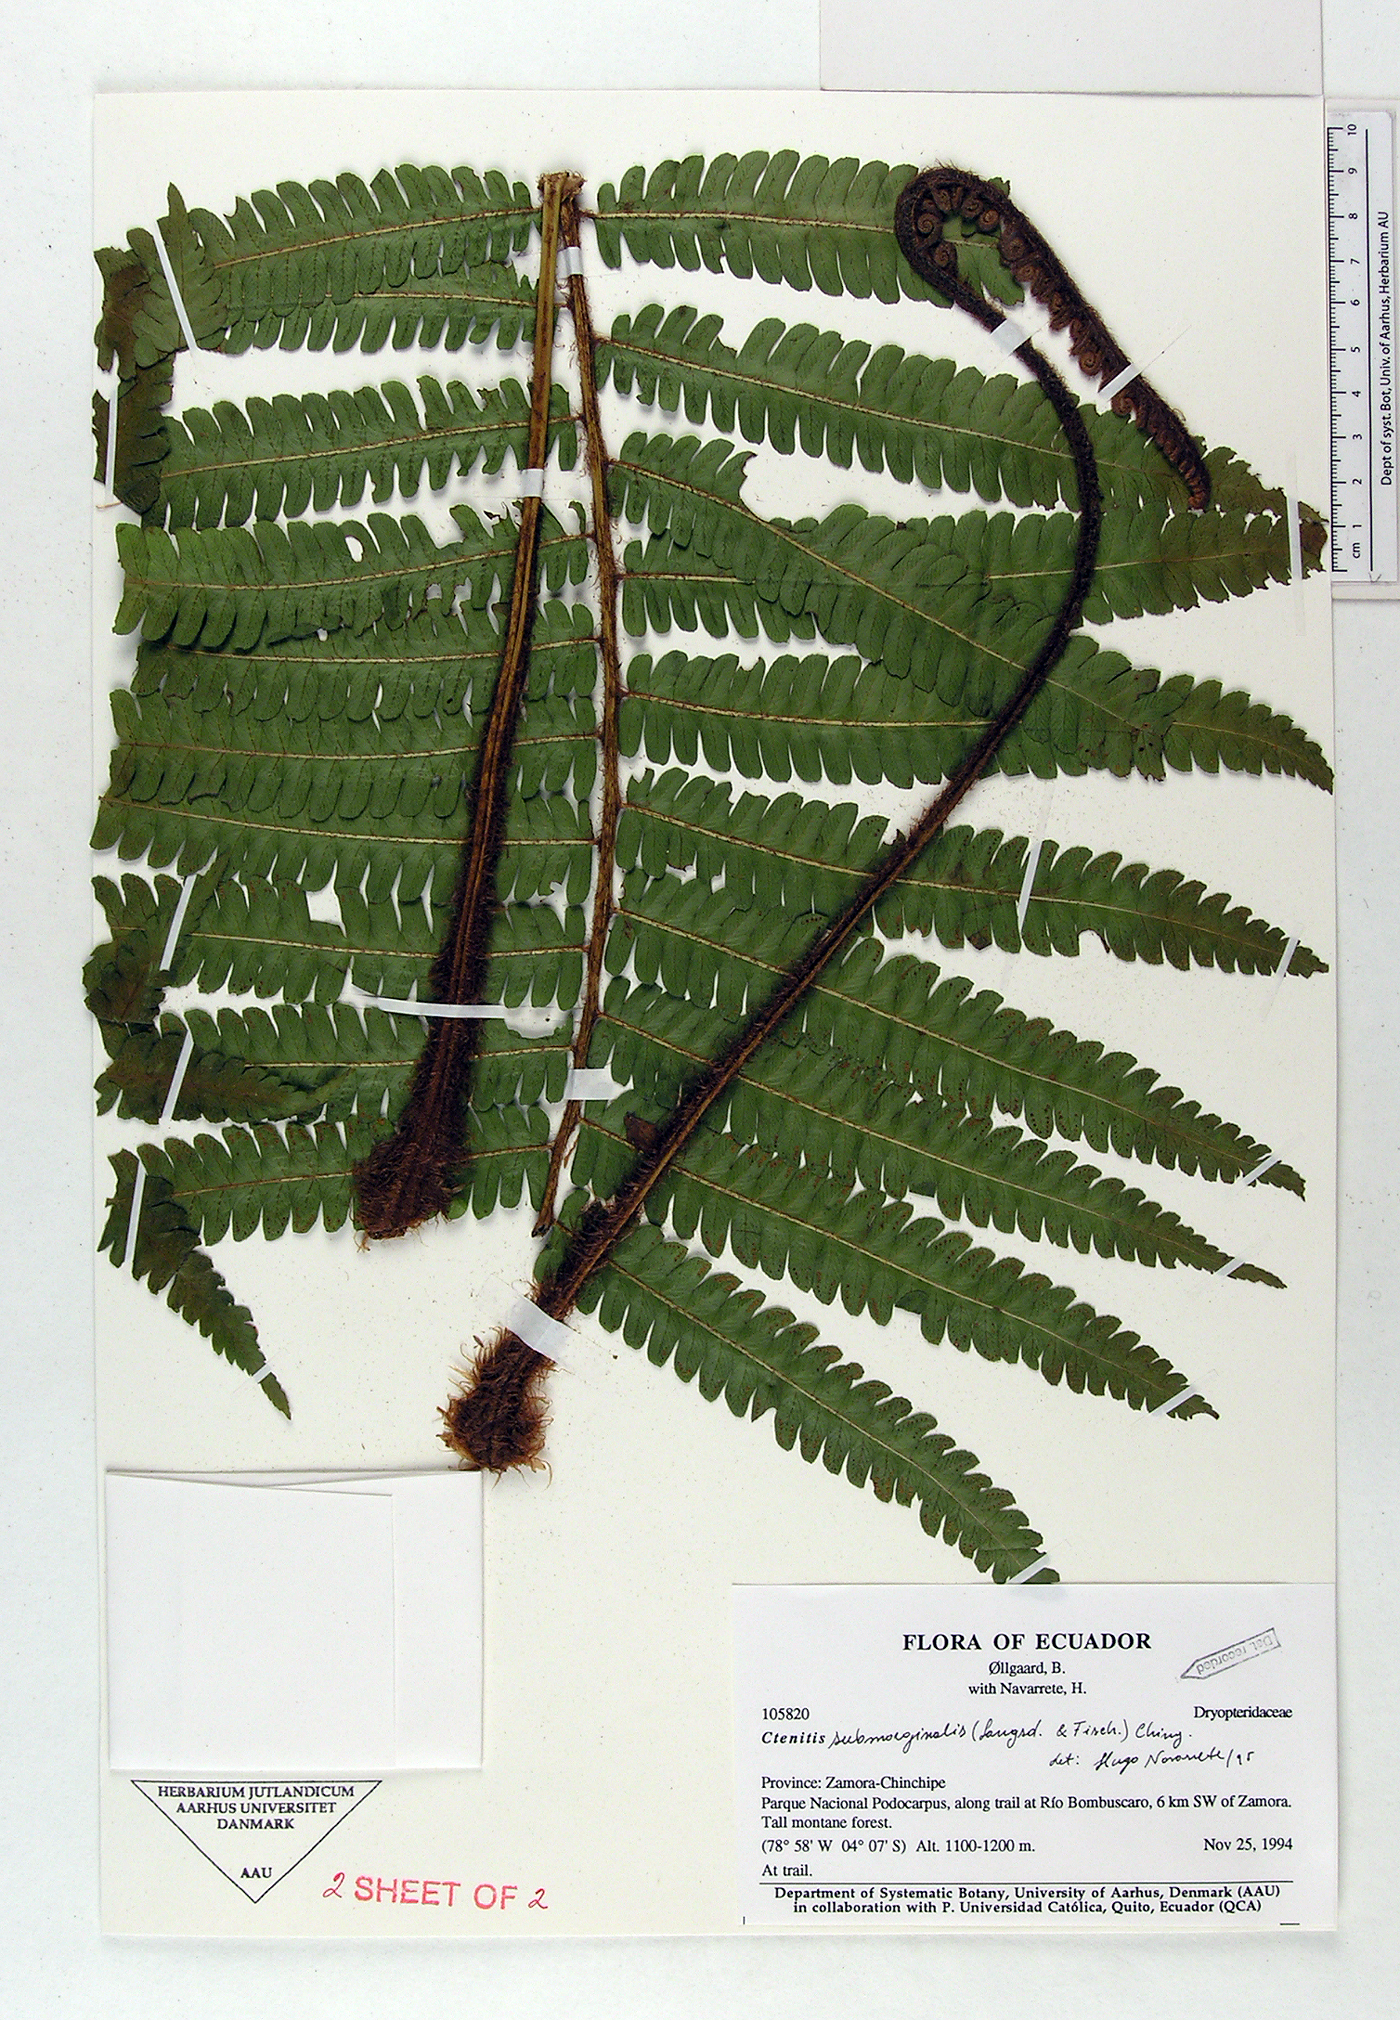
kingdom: Plantae
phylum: Tracheophyta
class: Polypodiopsida
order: Polypodiales
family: Dryopteridaceae
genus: Ctenitis
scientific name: Ctenitis submarginalis
